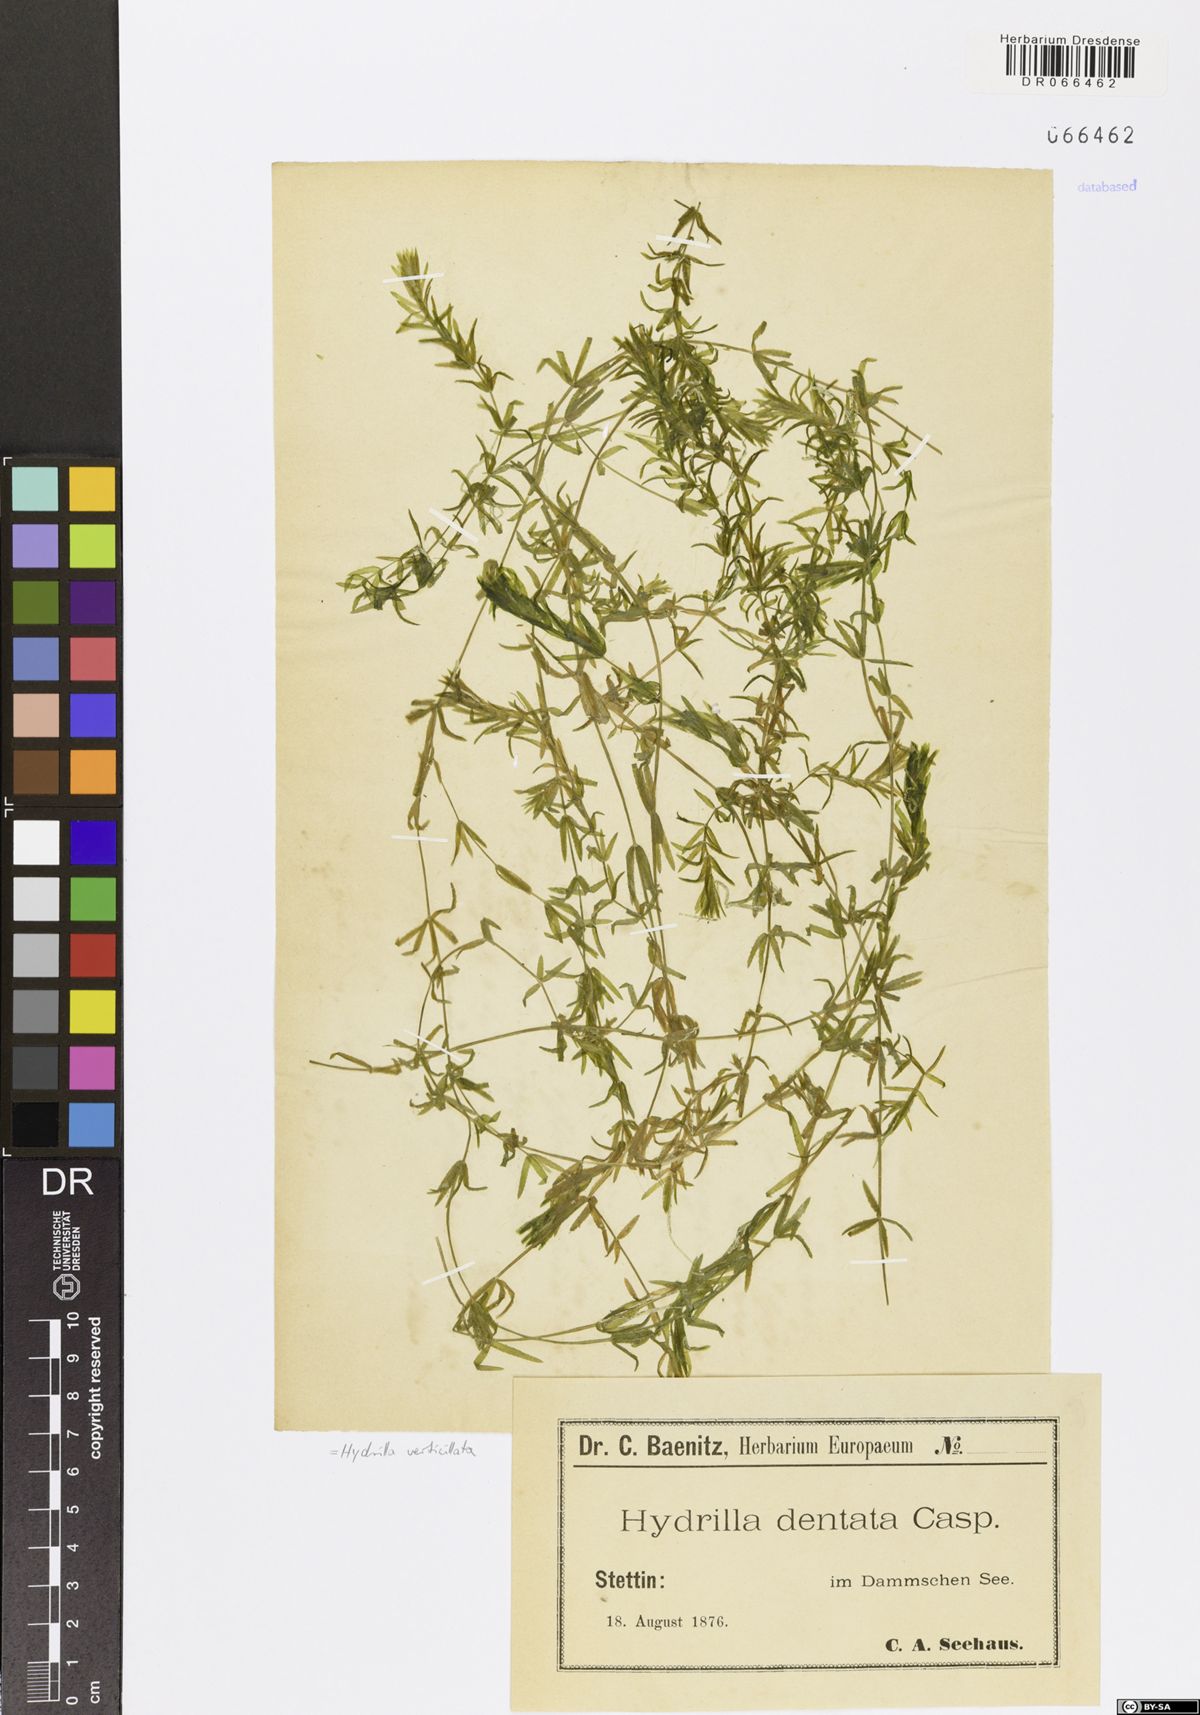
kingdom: Plantae
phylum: Tracheophyta
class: Liliopsida
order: Alismatales
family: Hydrocharitaceae
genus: Hydrilla
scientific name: Hydrilla verticillata
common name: Florida-elodea
